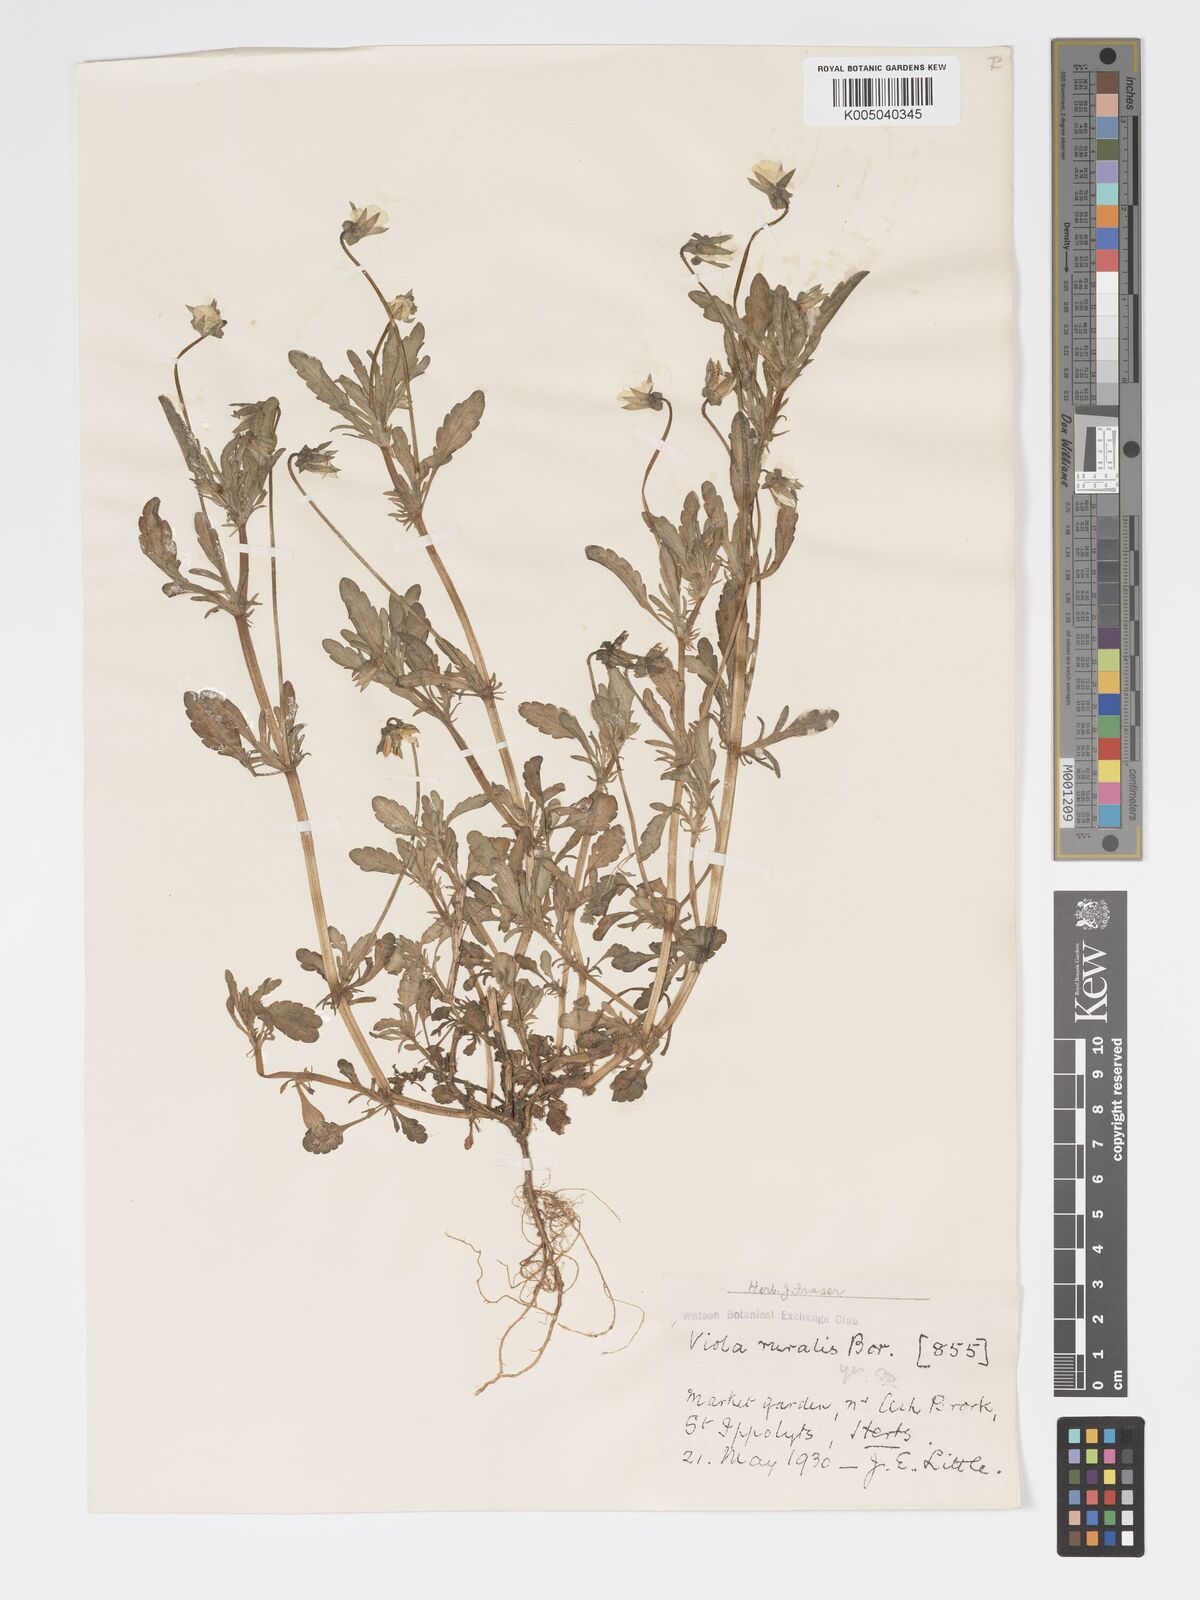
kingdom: Plantae
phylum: Tracheophyta
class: Magnoliopsida
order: Malpighiales
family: Violaceae
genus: Viola
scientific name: Viola arvensis
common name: Field pansy
